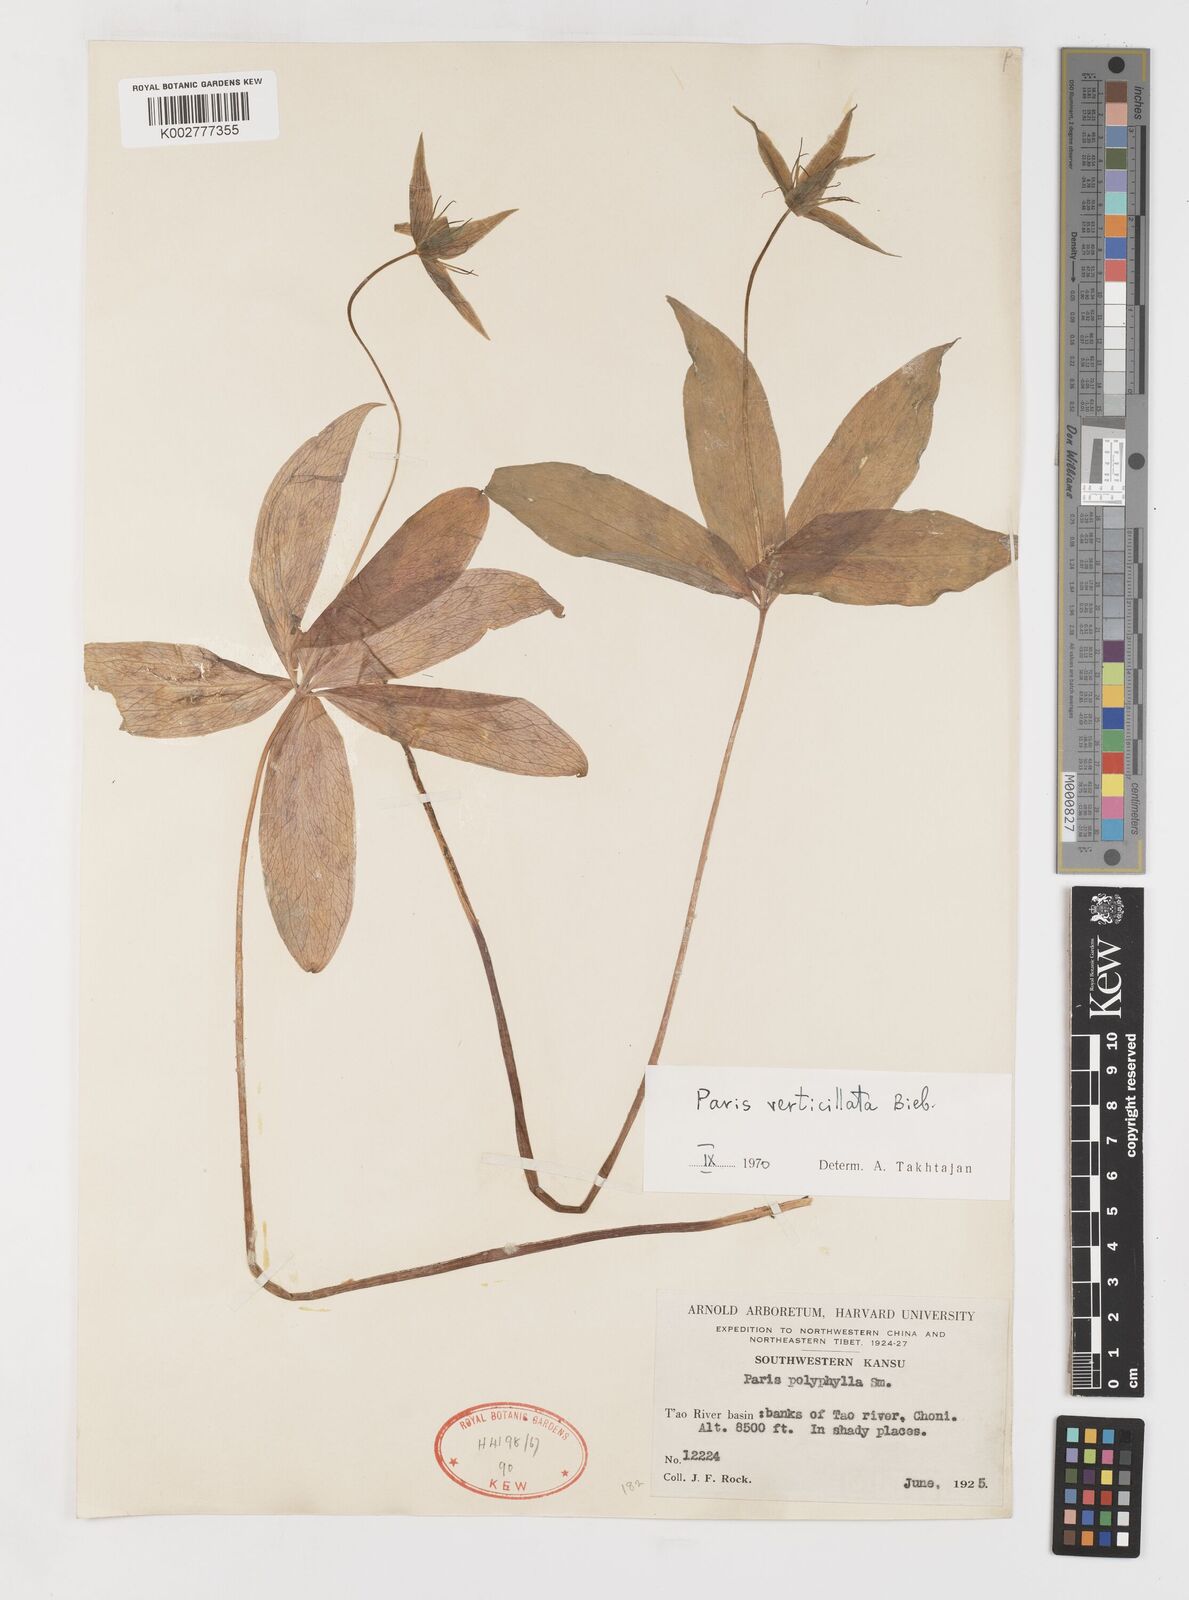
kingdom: Plantae
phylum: Tracheophyta
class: Liliopsida
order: Liliales
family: Melanthiaceae
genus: Paris
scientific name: Paris verticillata
